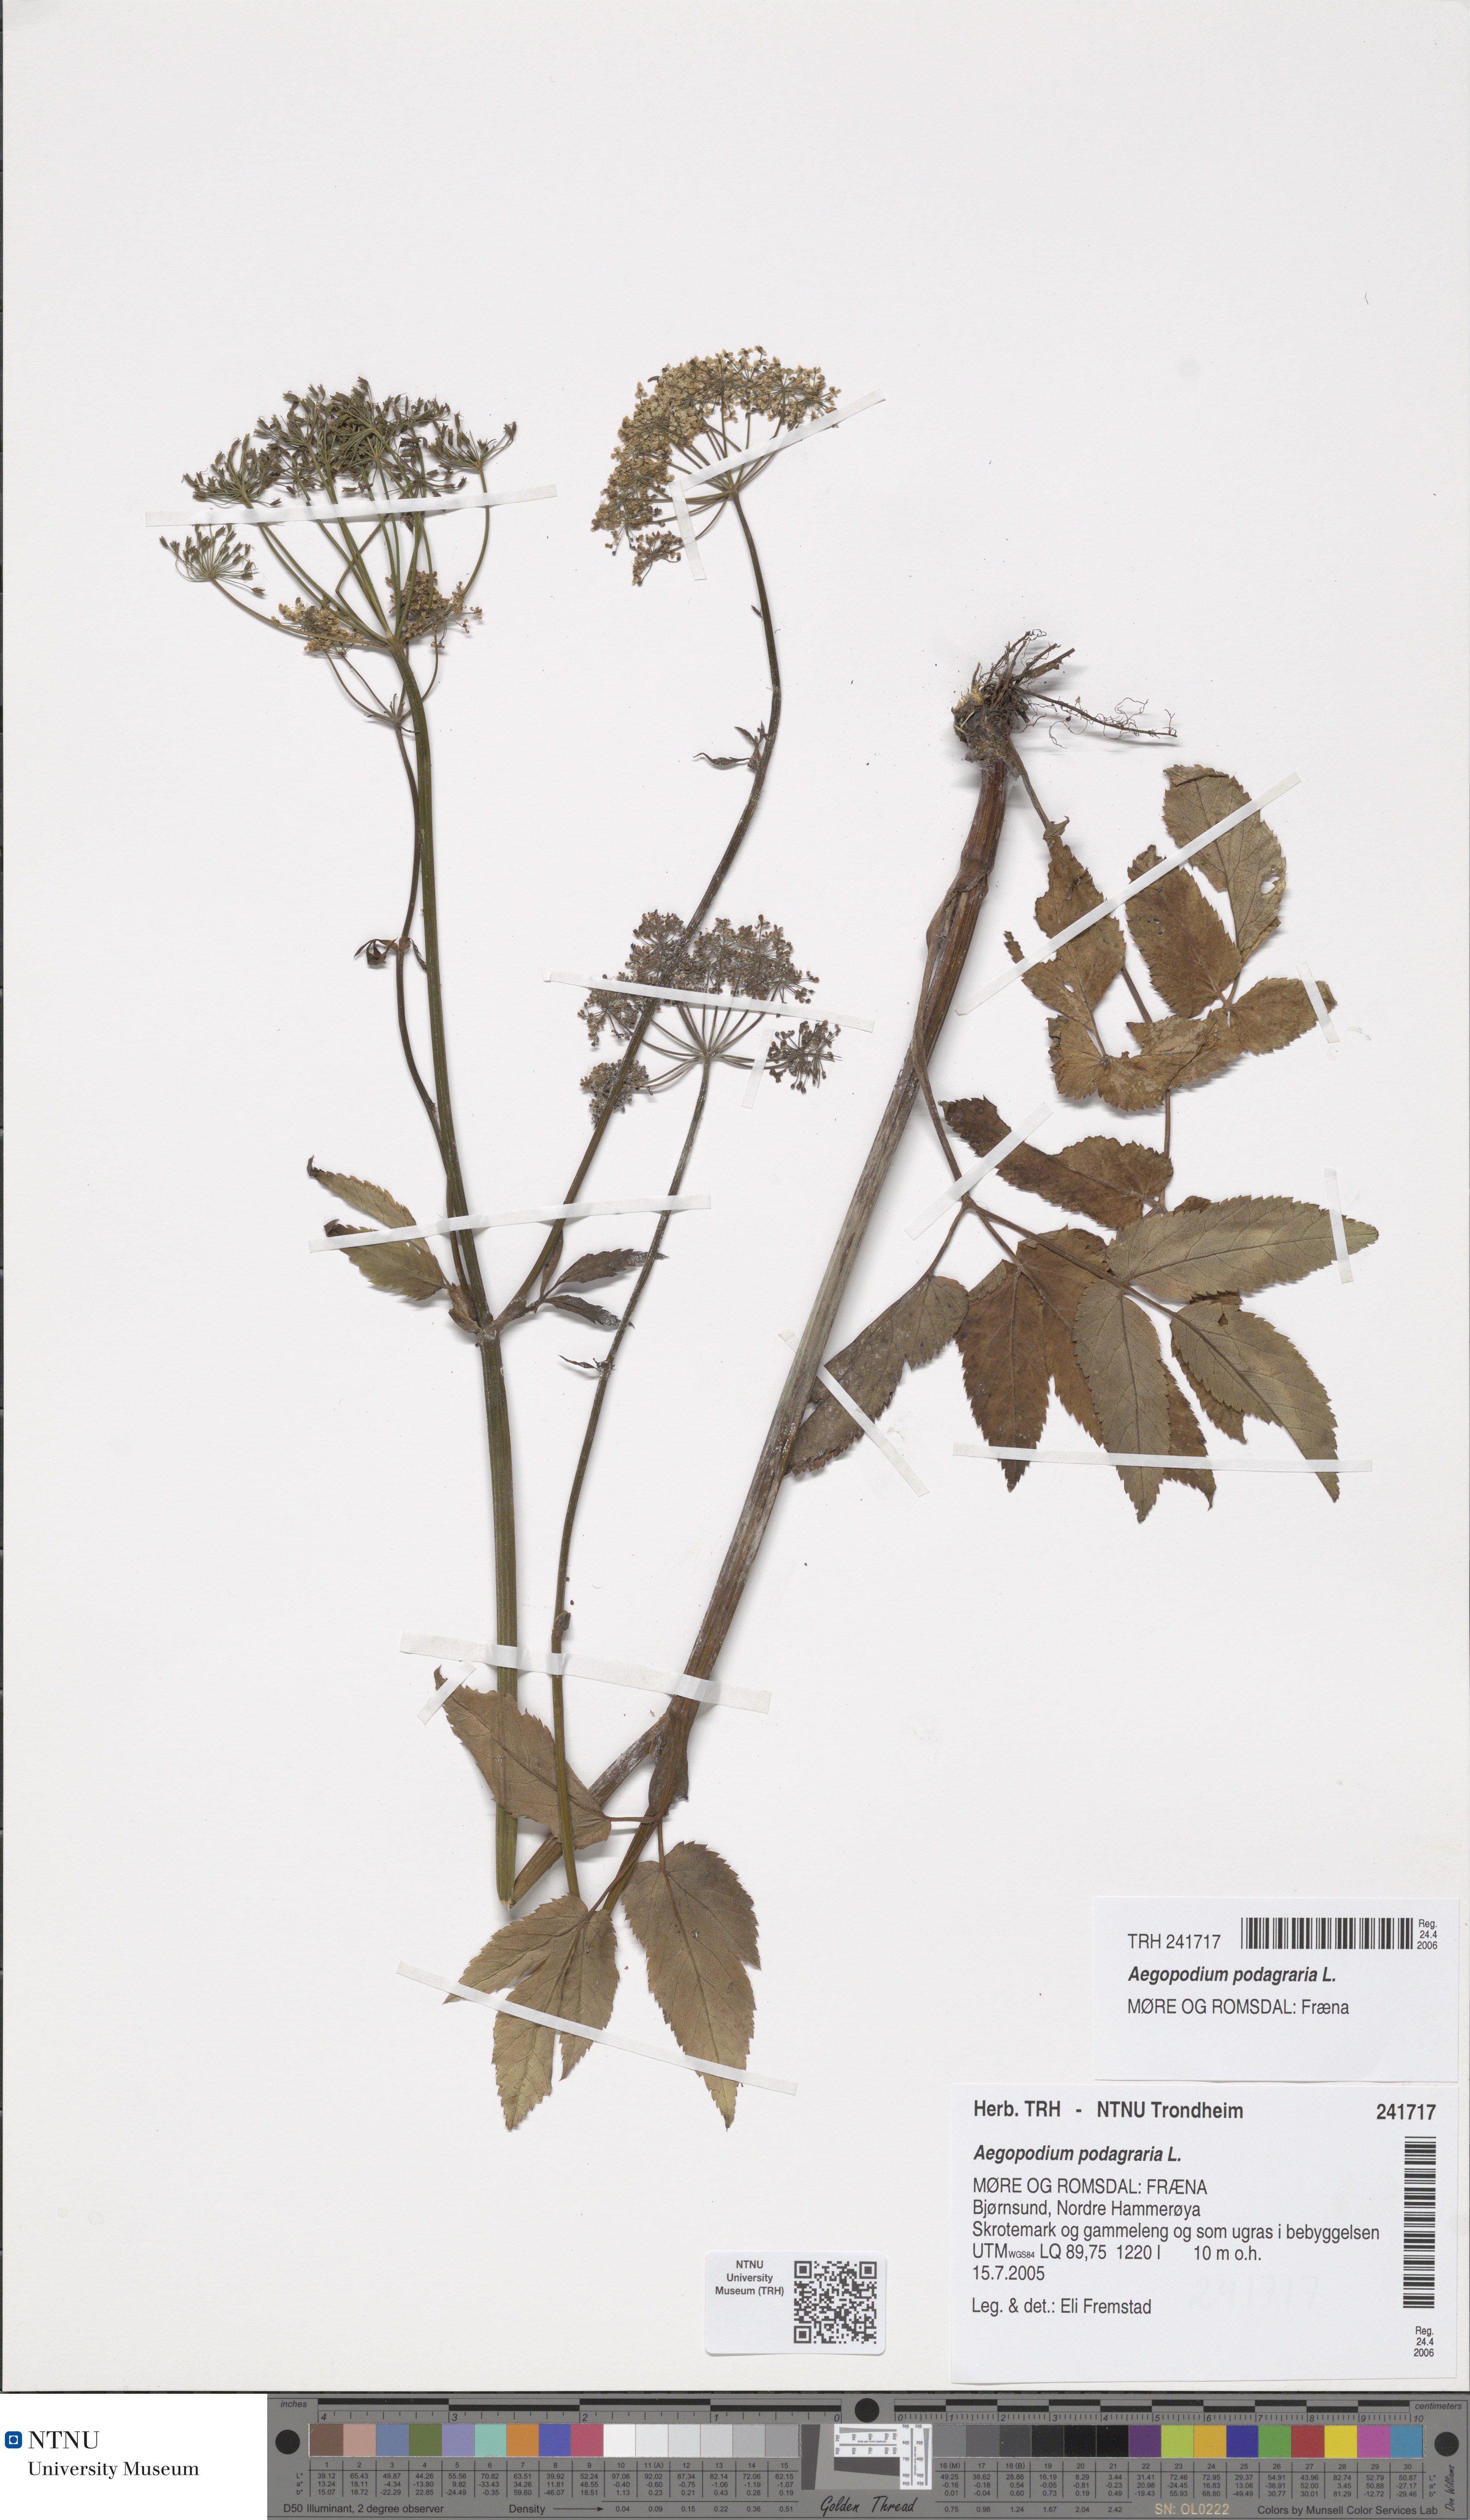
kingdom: Plantae
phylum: Tracheophyta
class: Magnoliopsida
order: Apiales
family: Apiaceae
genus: Aegopodium
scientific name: Aegopodium podagraria
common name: Ground-elder
